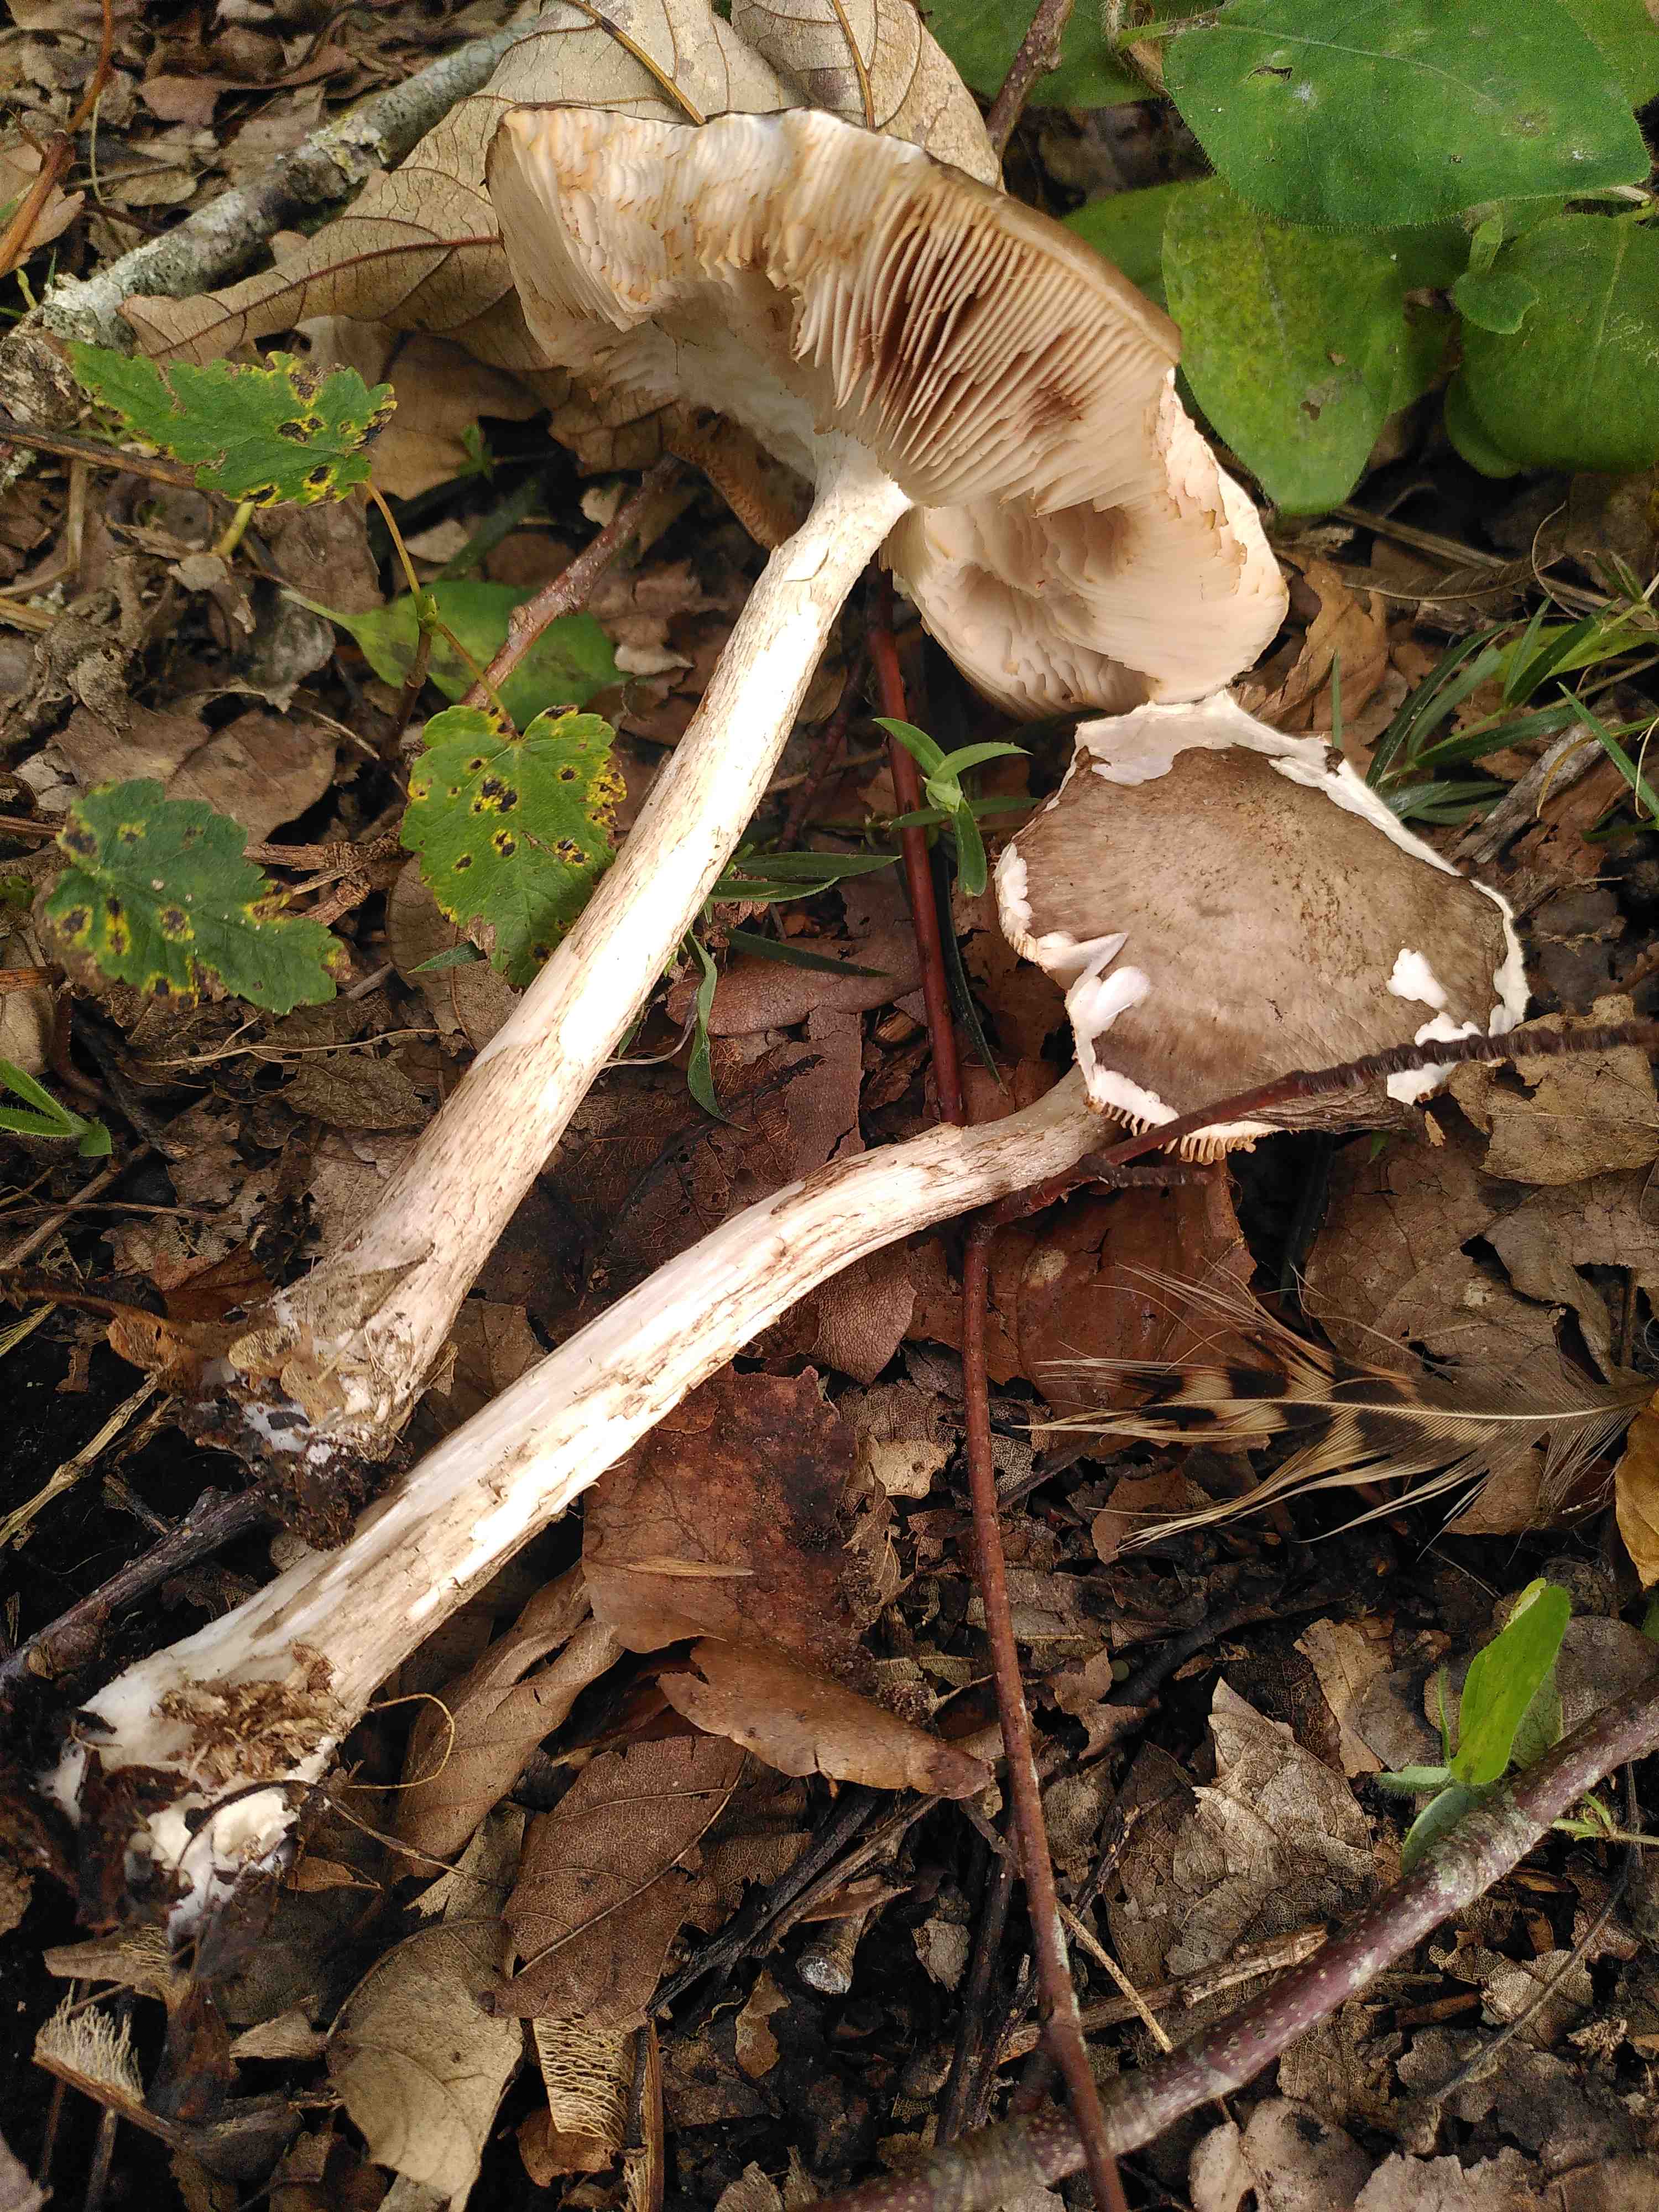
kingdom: Fungi
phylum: Basidiomycota
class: Agaricomycetes
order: Agaricales
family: Pluteaceae
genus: Pluteus
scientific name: Pluteus cervinus
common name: sodfarvet skærmhat
